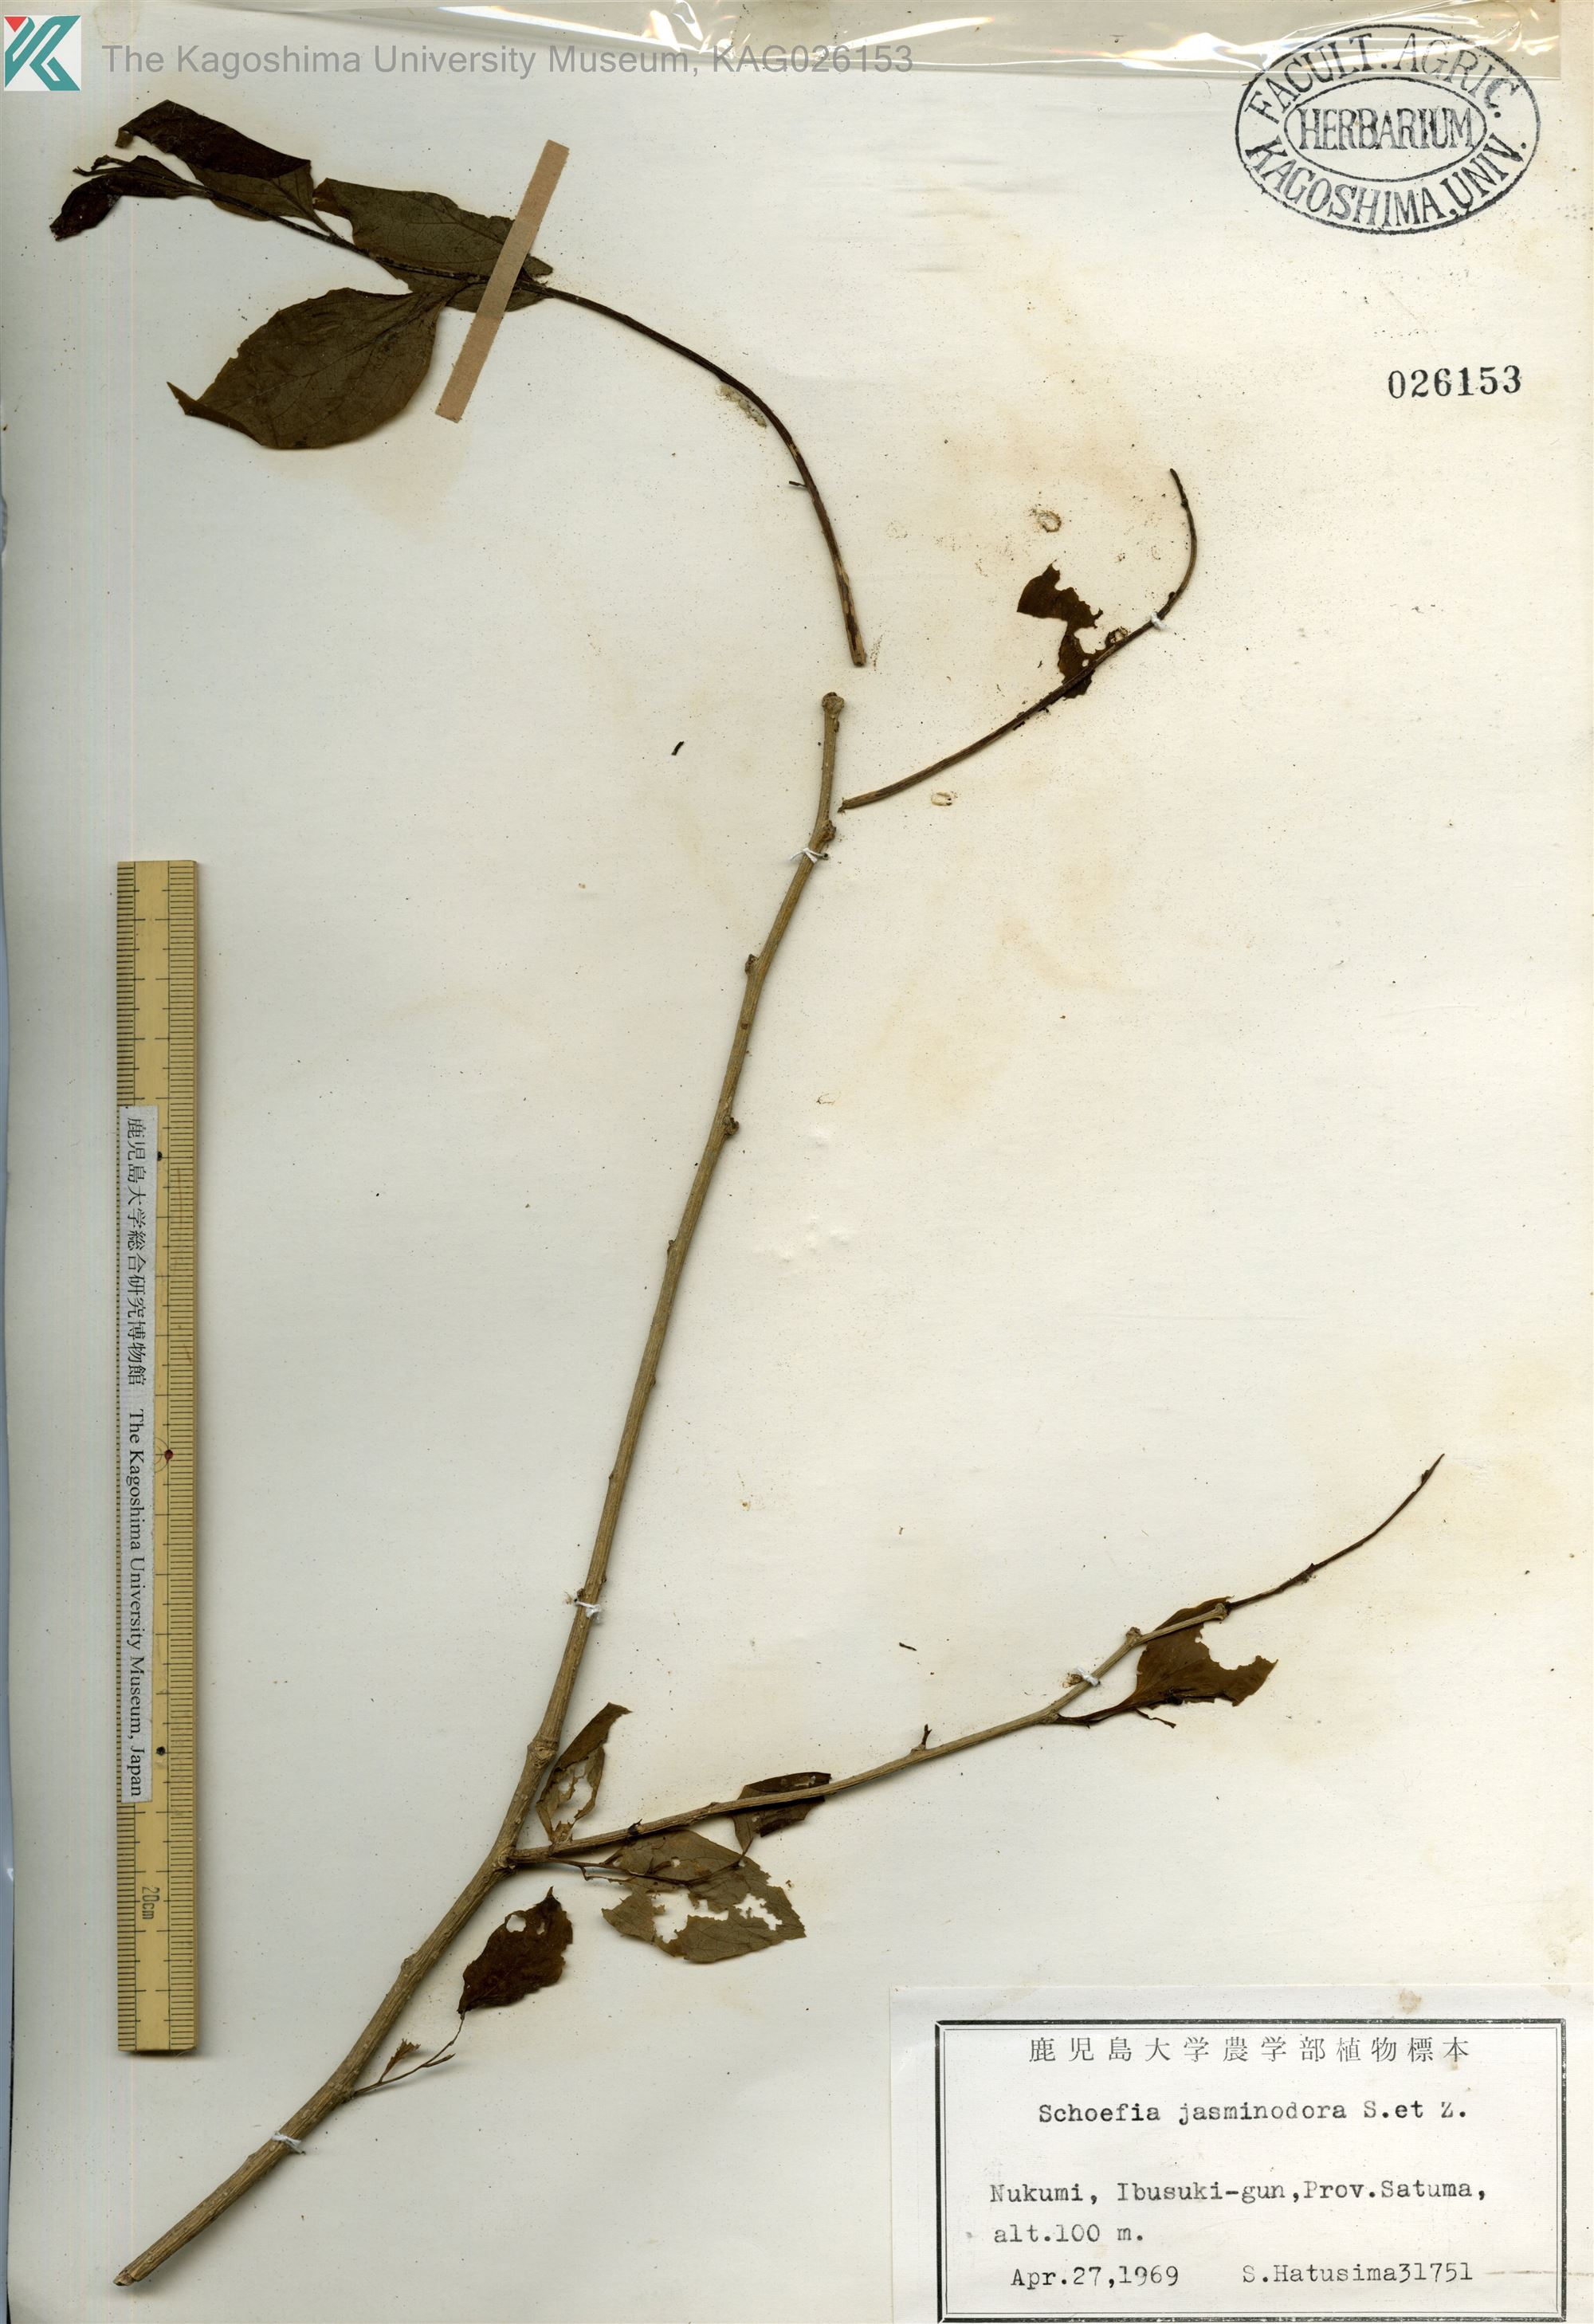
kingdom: Plantae
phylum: Tracheophyta
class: Magnoliopsida
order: Santalales
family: Schoepfiaceae
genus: Schoepfia
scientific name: Schoepfia jasminodora
